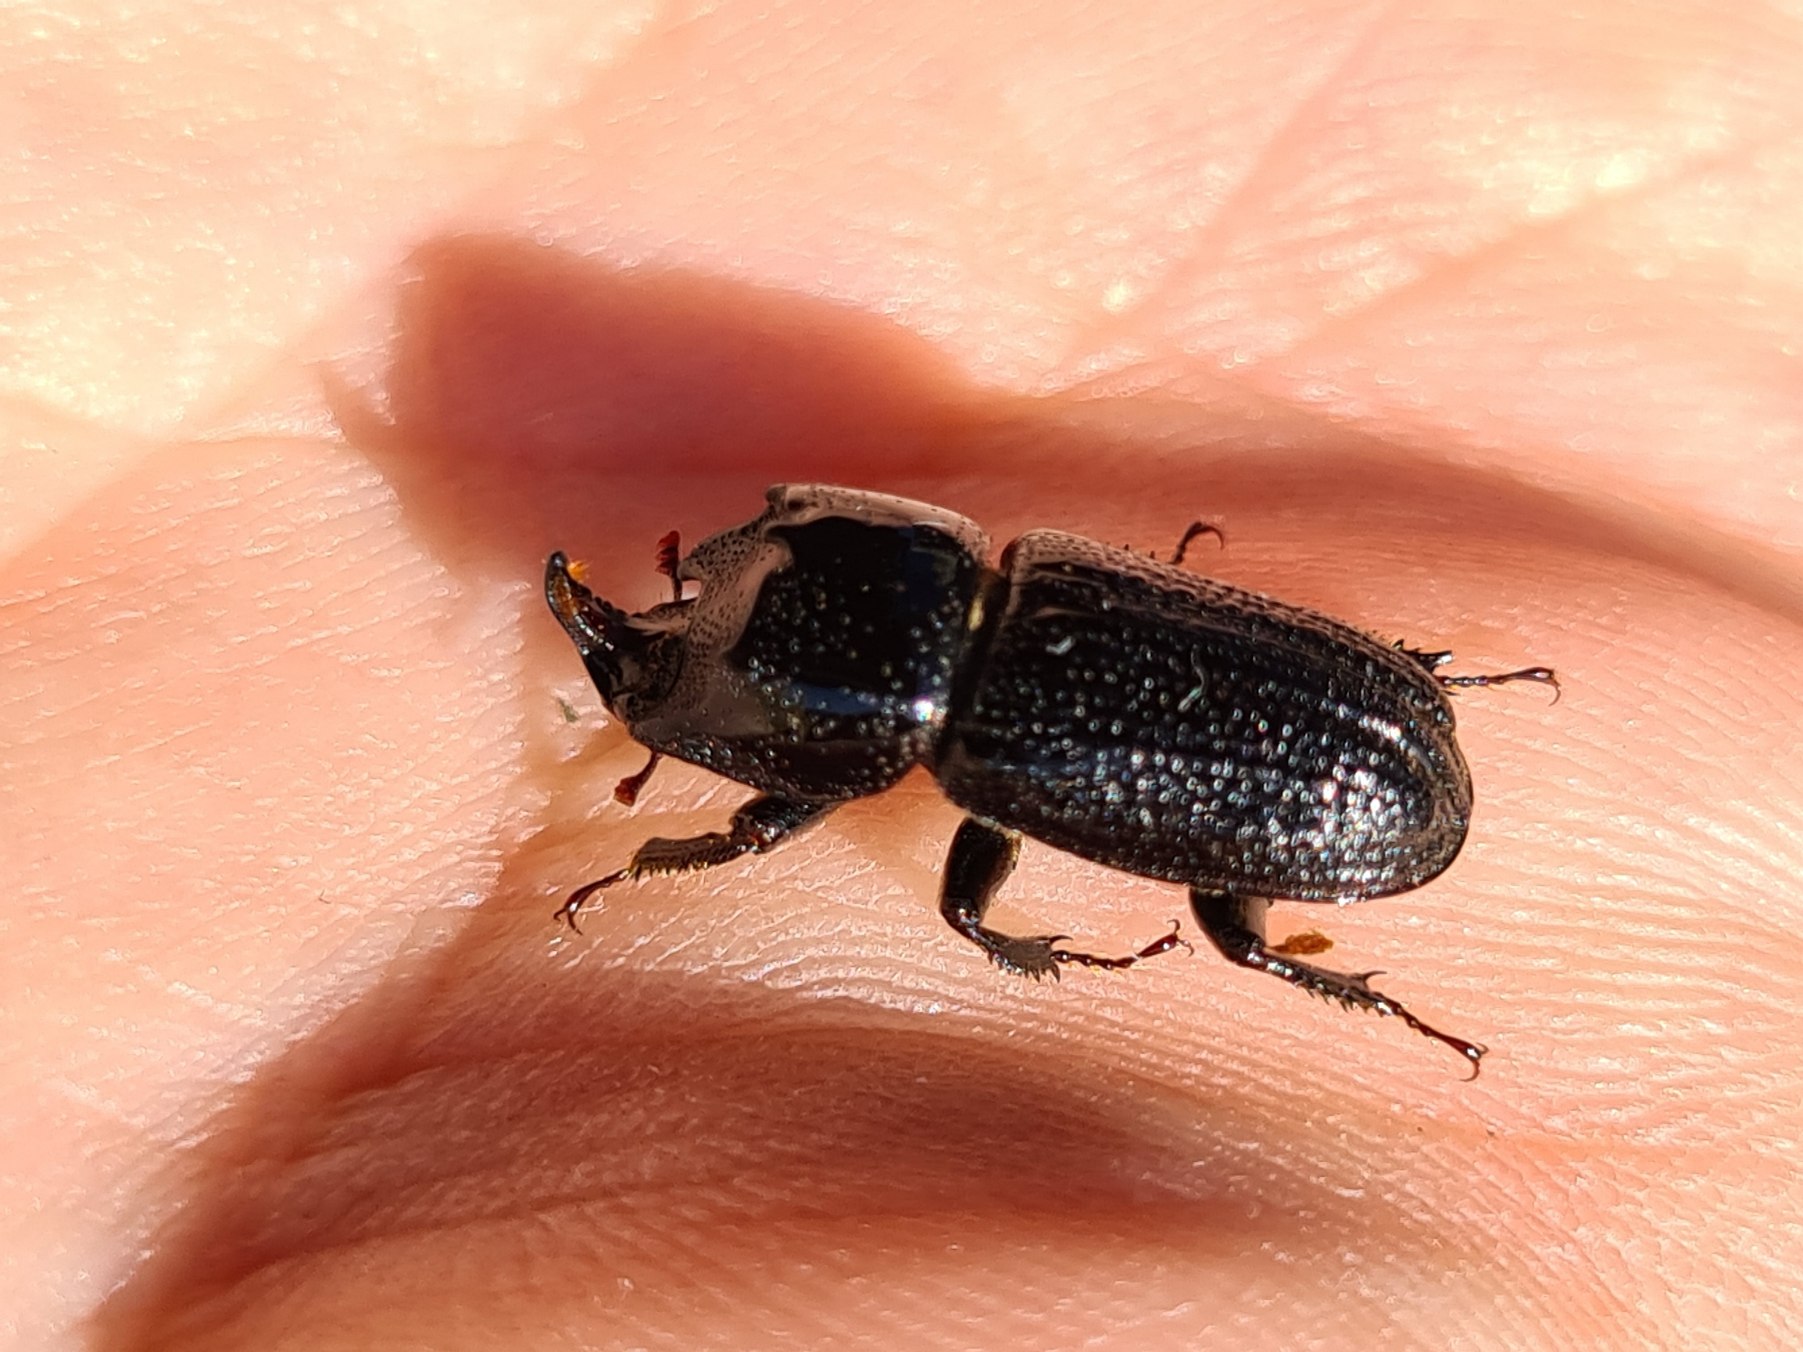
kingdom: Animalia
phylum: Arthropoda
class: Insecta
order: Coleoptera
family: Lucanidae
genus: Sinodendron
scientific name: Sinodendron cylindricum
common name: Valsehjort
